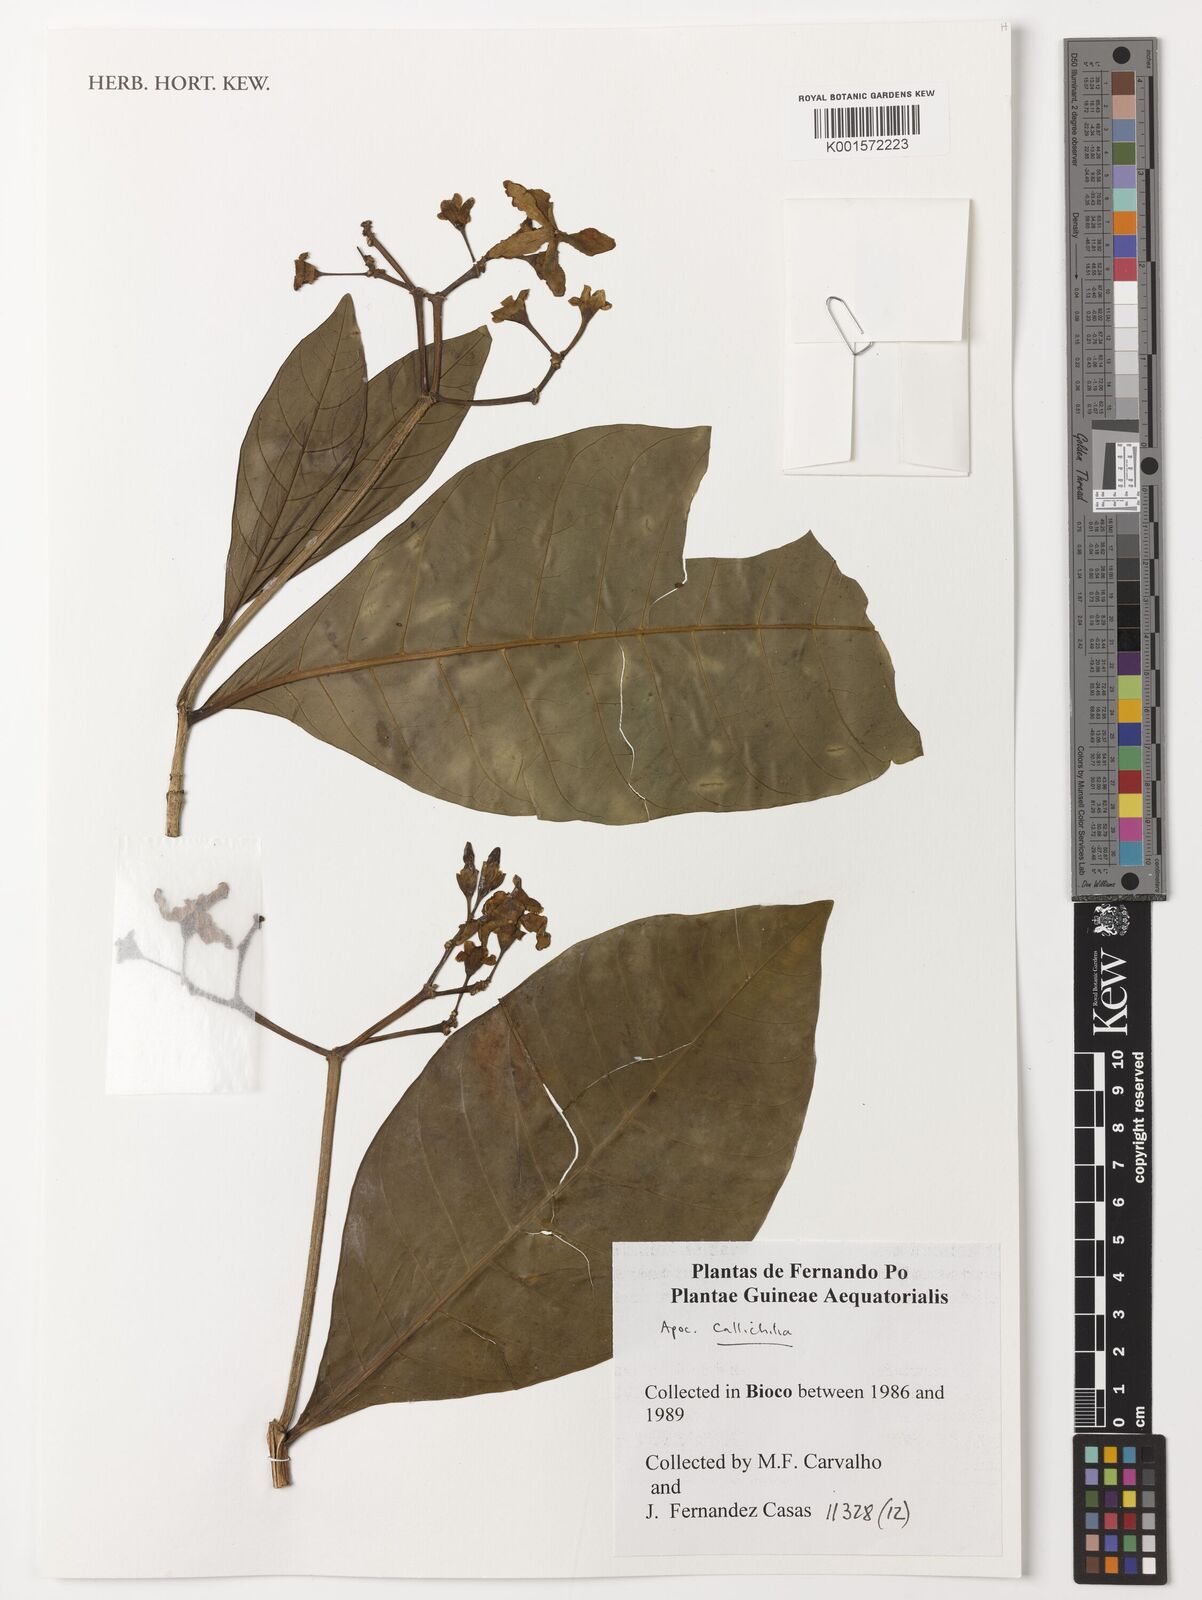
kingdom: Plantae
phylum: Tracheophyta
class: Magnoliopsida
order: Gentianales
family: Apocynaceae
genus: Callichilia
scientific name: Callichilia
